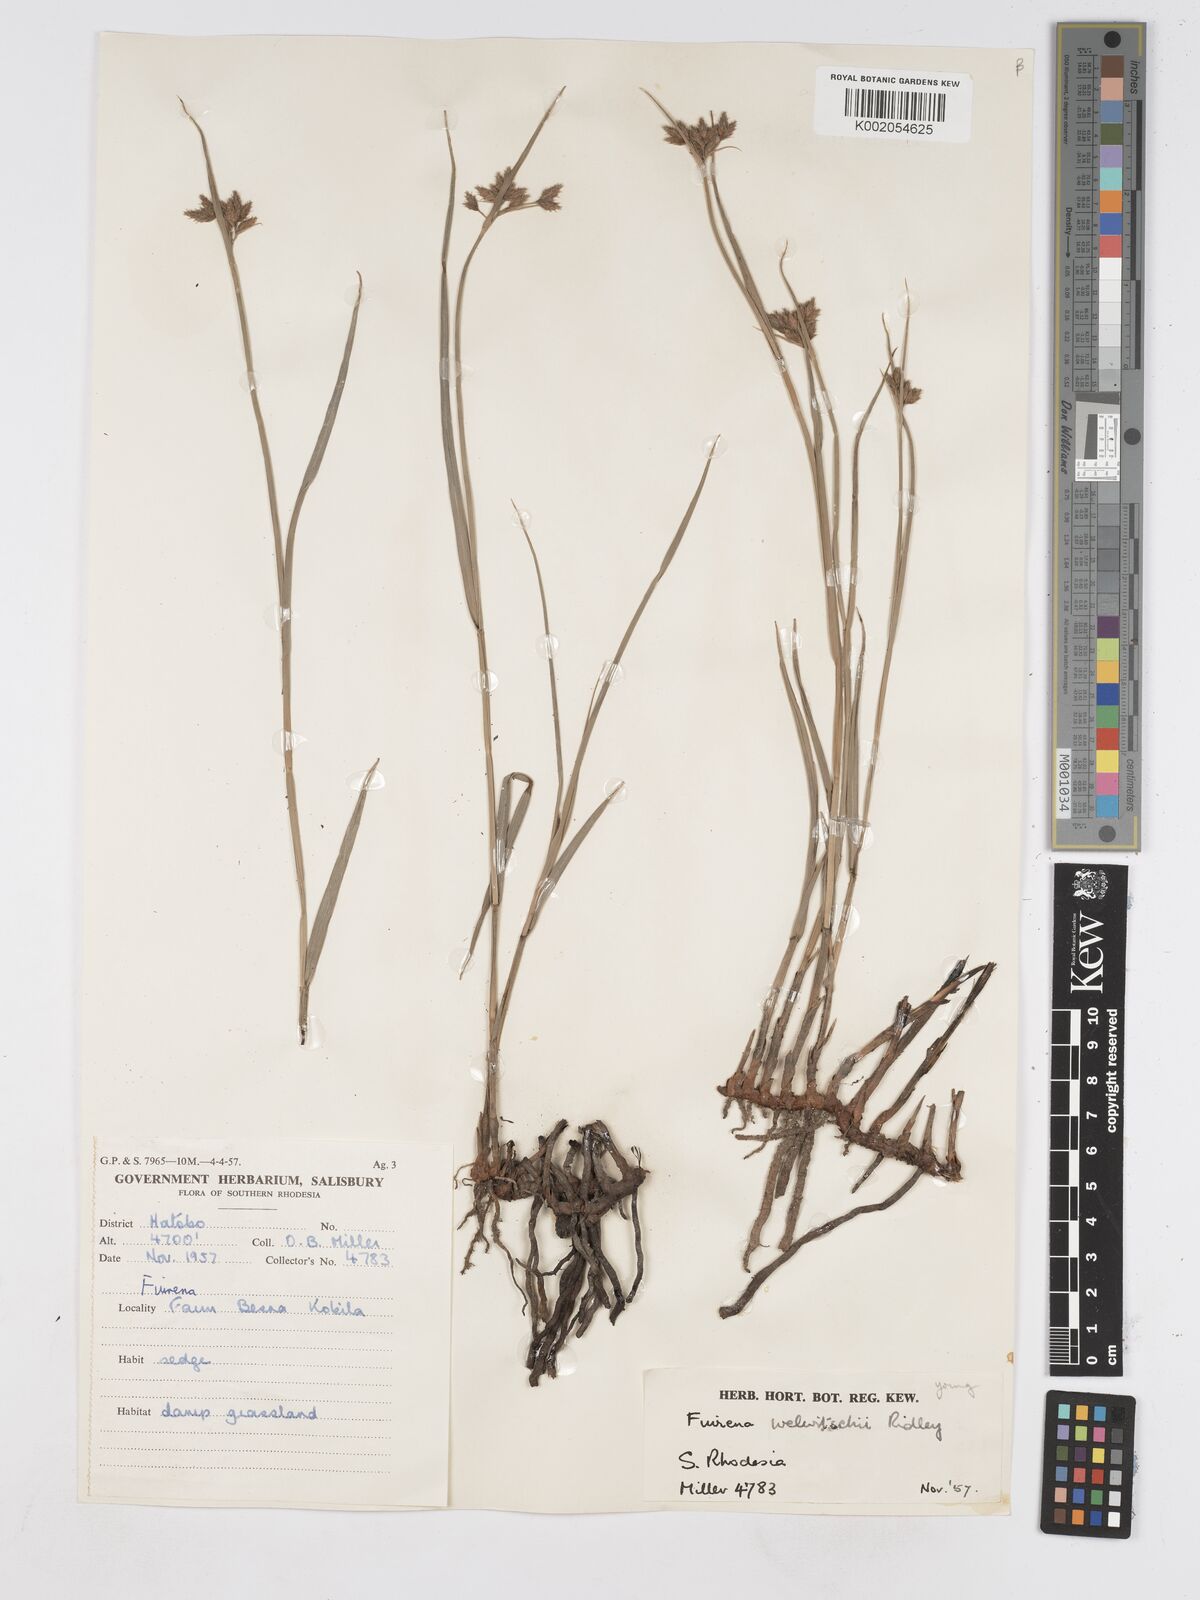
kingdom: Plantae
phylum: Tracheophyta
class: Liliopsida
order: Poales
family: Cyperaceae
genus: Fuirena
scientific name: Fuirena welwitschii
